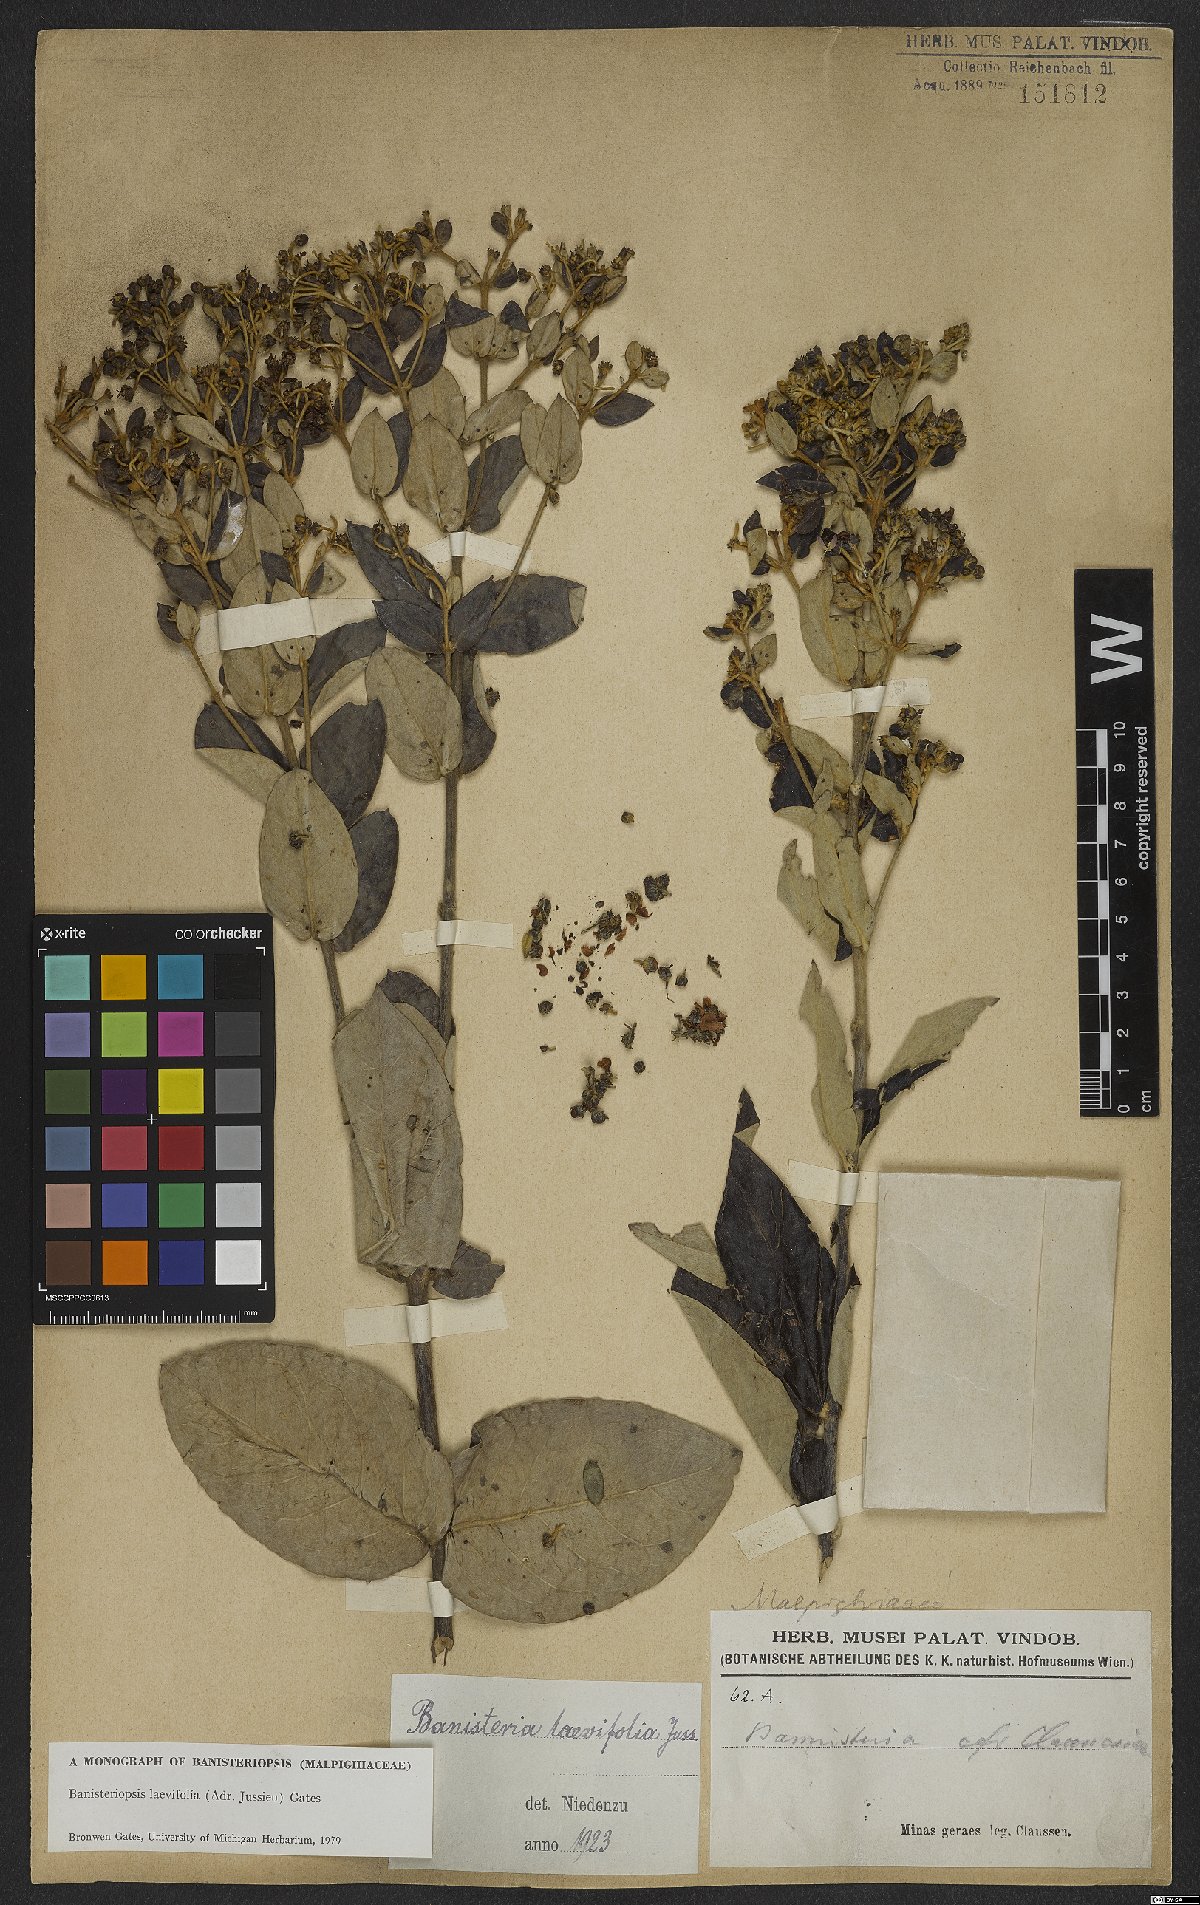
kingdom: Plantae
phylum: Tracheophyta
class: Magnoliopsida
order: Malpighiales
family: Malpighiaceae
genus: Banisteriopsis
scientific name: Banisteriopsis laevifolia
